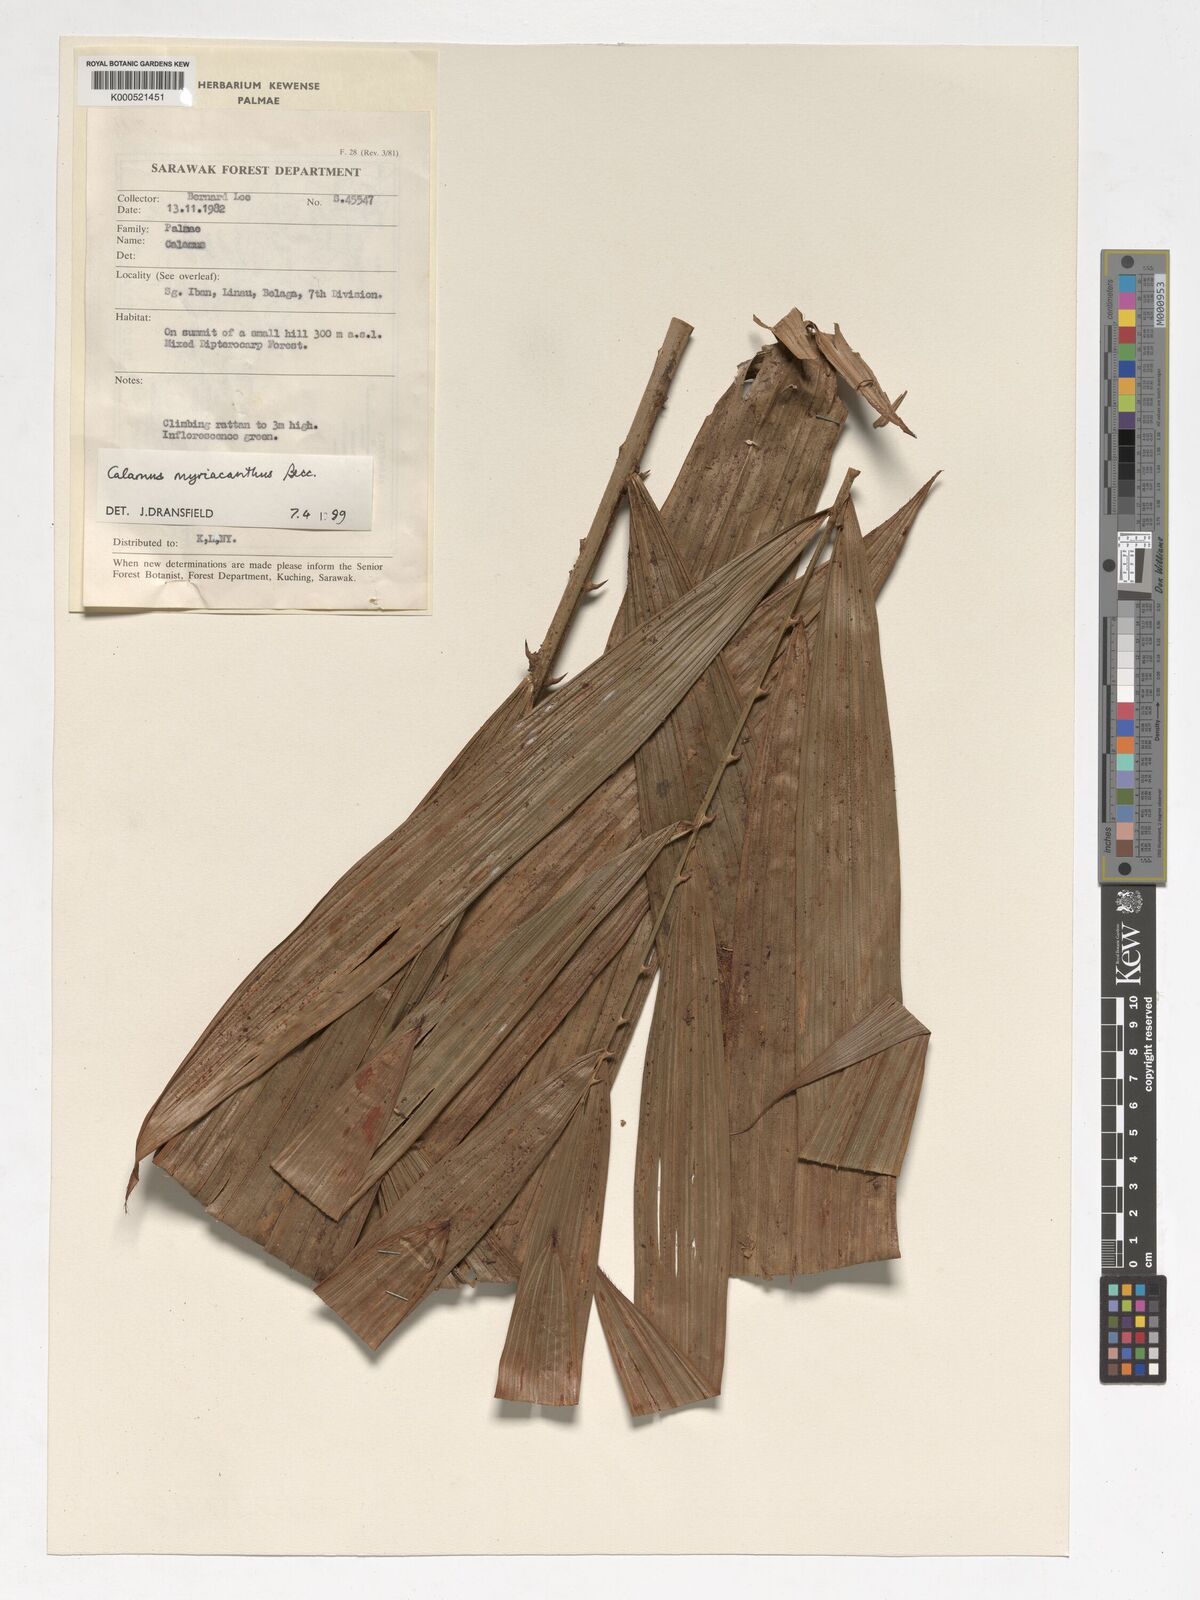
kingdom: Plantae
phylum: Tracheophyta
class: Liliopsida
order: Arecales
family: Arecaceae
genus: Calamus
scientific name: Calamus myriacanthus
